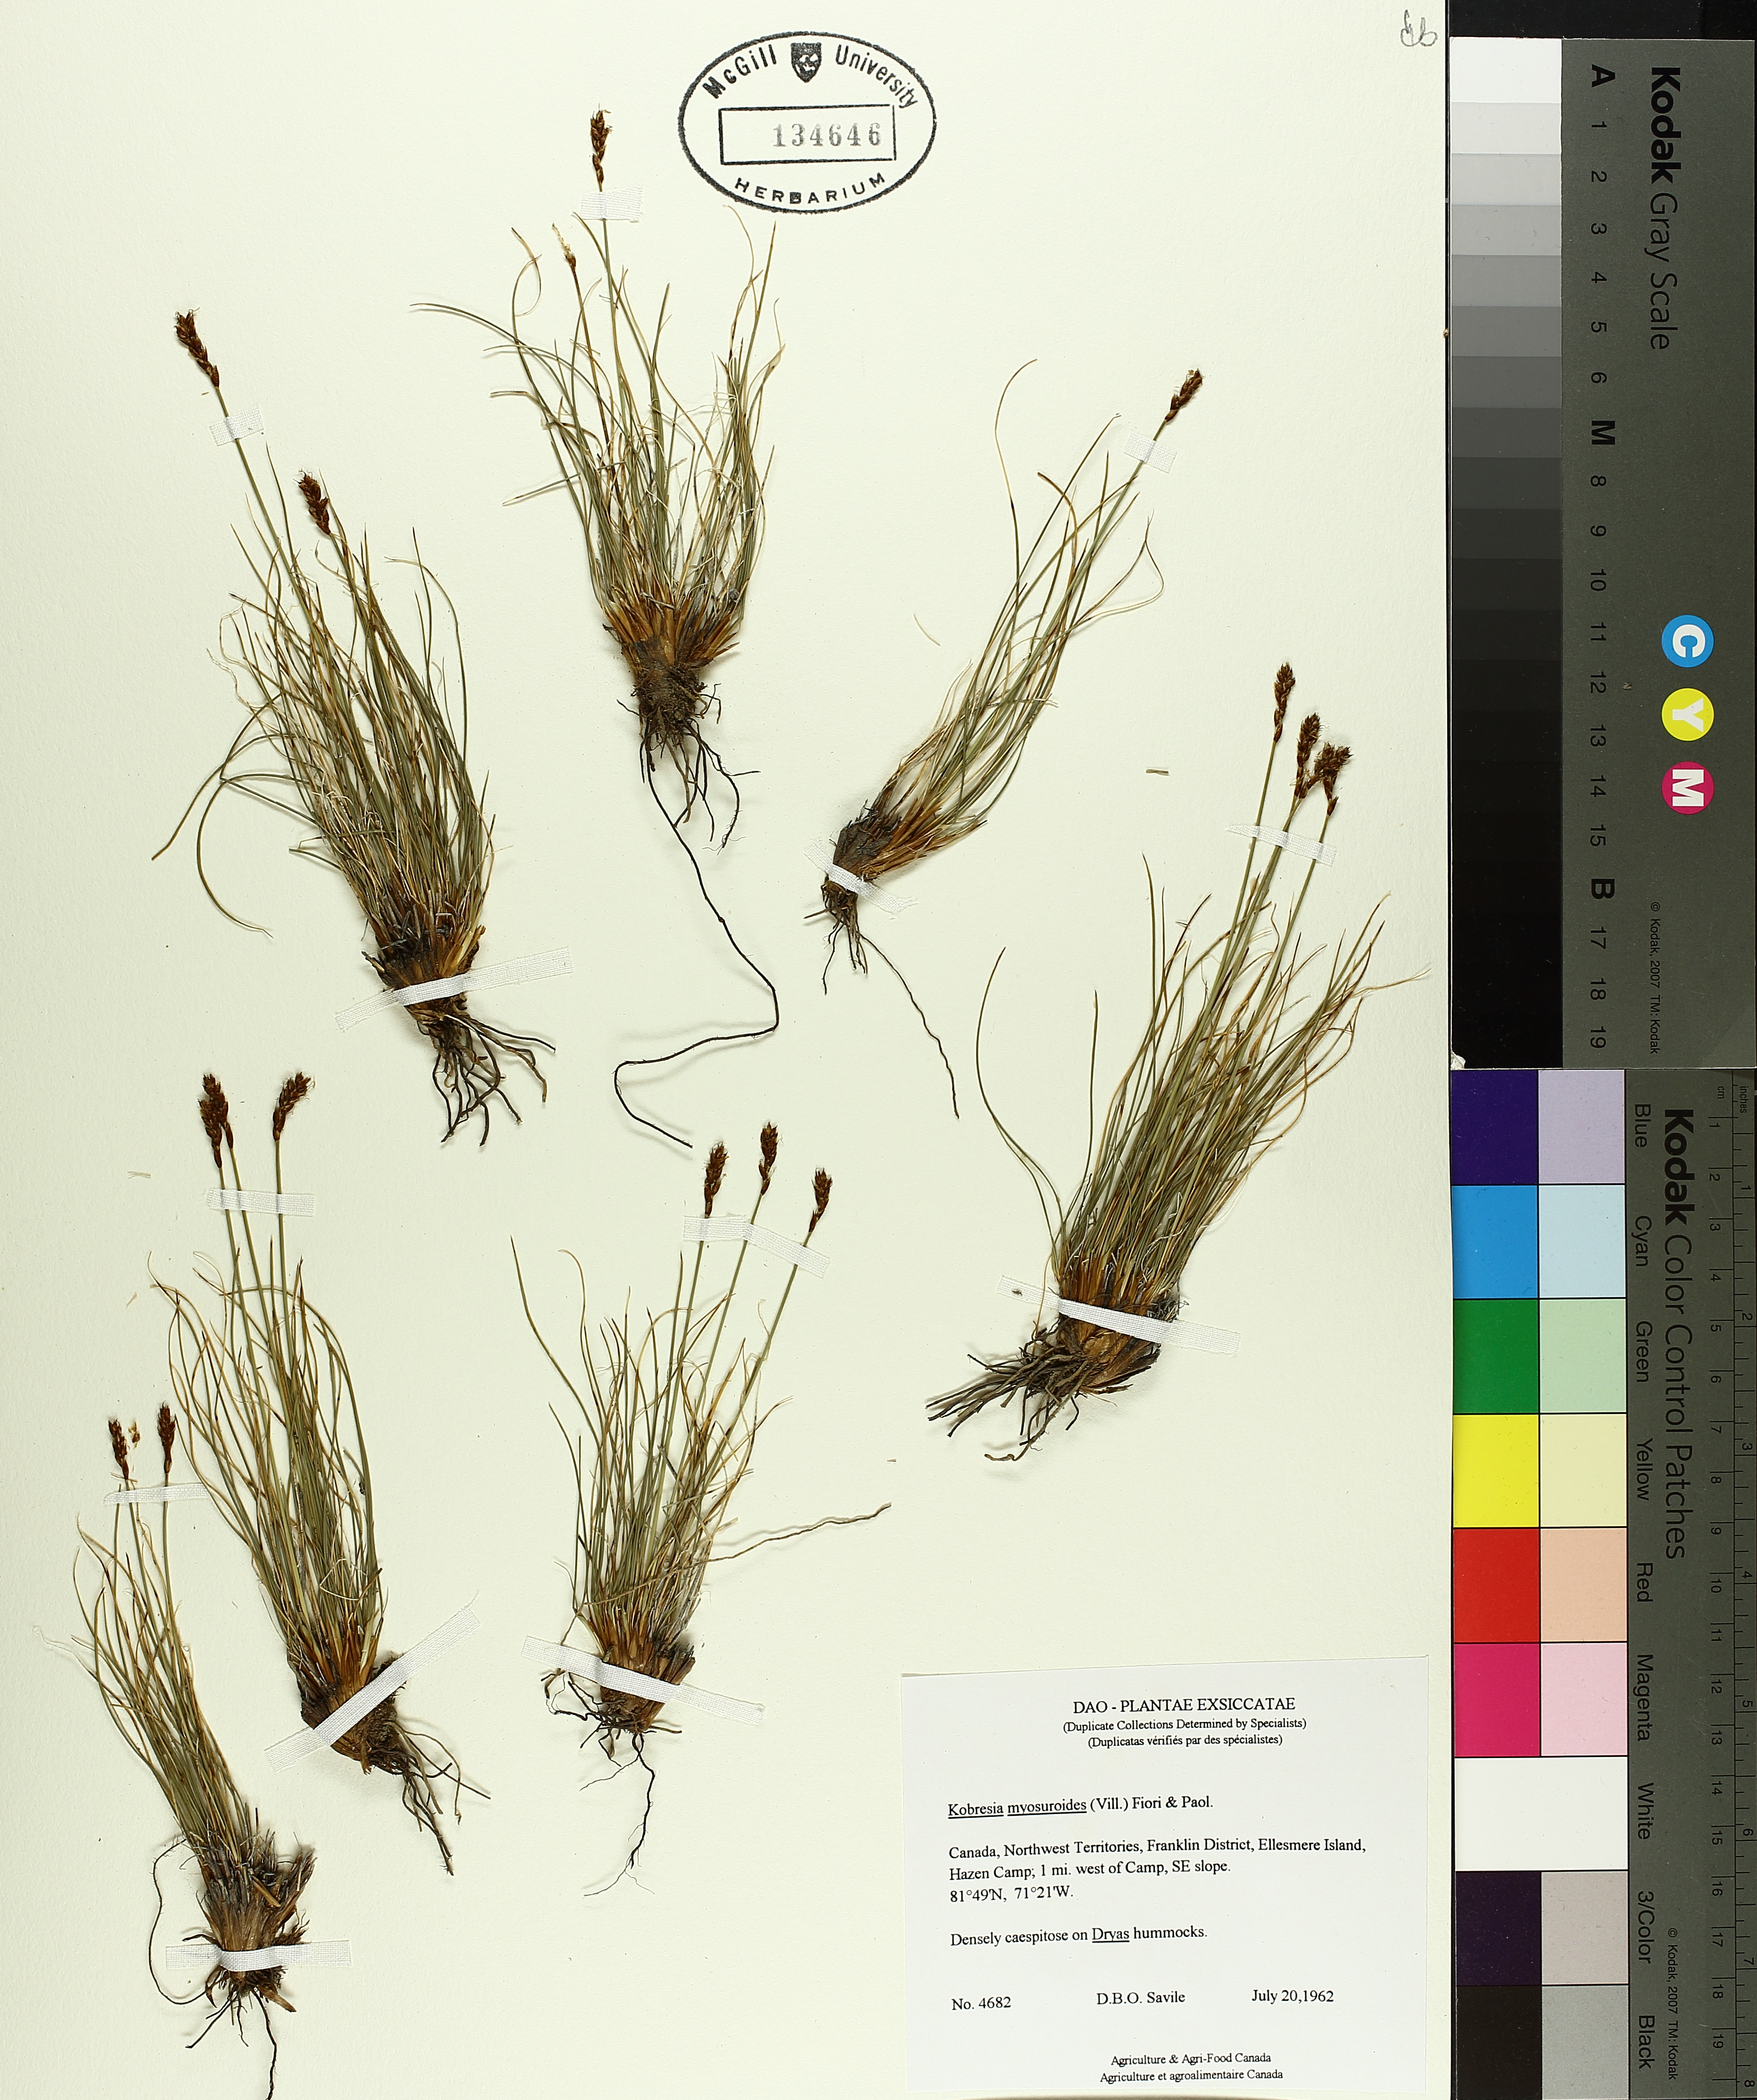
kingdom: Plantae
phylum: Tracheophyta
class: Liliopsida
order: Poales
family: Cyperaceae
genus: Carex
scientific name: Carex myosuroides
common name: Bellard's bog sedge
